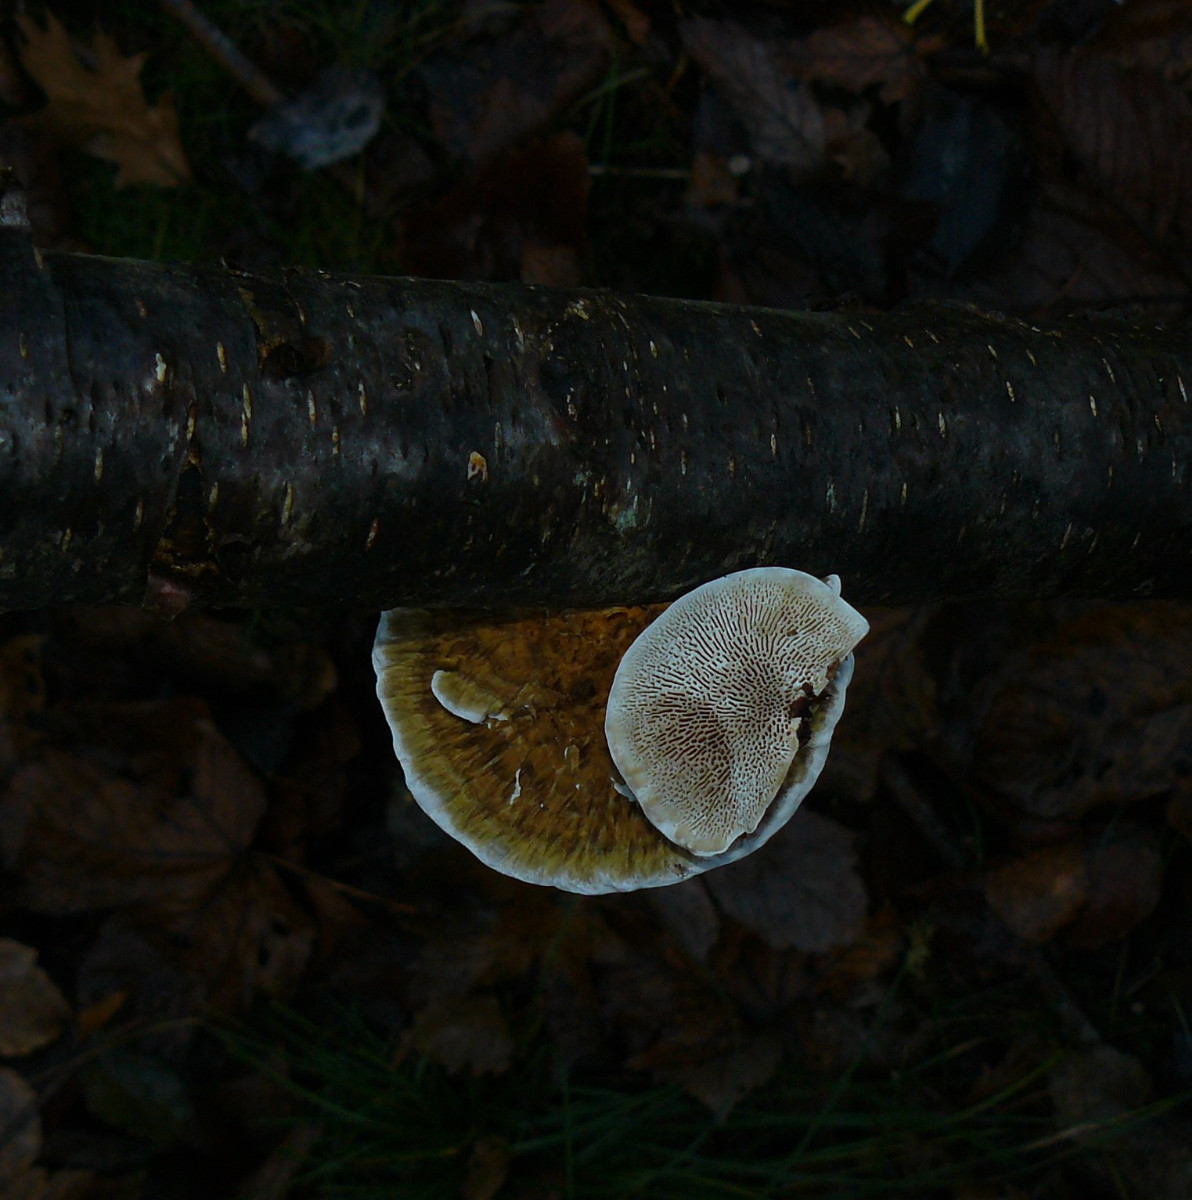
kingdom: Fungi
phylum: Basidiomycota
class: Agaricomycetes
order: Polyporales
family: Polyporaceae
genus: Daedaleopsis
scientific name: Daedaleopsis confragosa
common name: rødmende læderporesvamp
